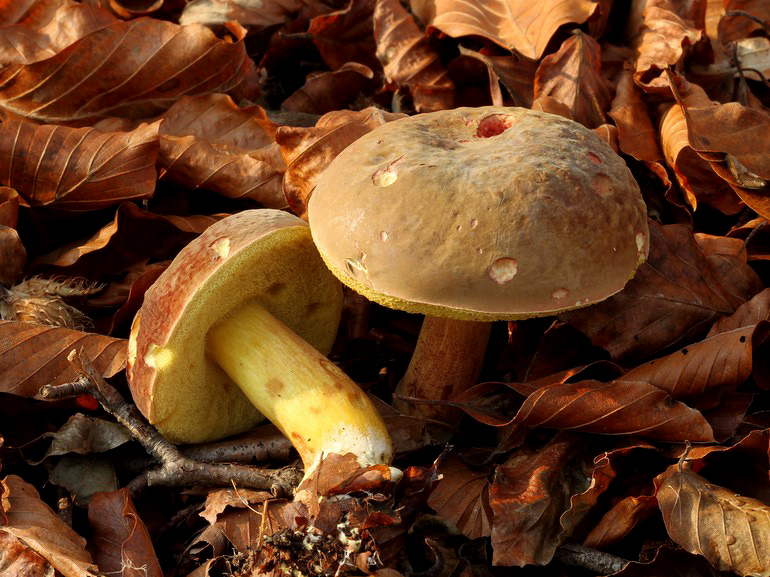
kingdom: Fungi
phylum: Basidiomycota
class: Agaricomycetes
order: Boletales
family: Boletaceae
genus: Xerocomellus
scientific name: Xerocomellus pruinatus
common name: dugget rørhat
